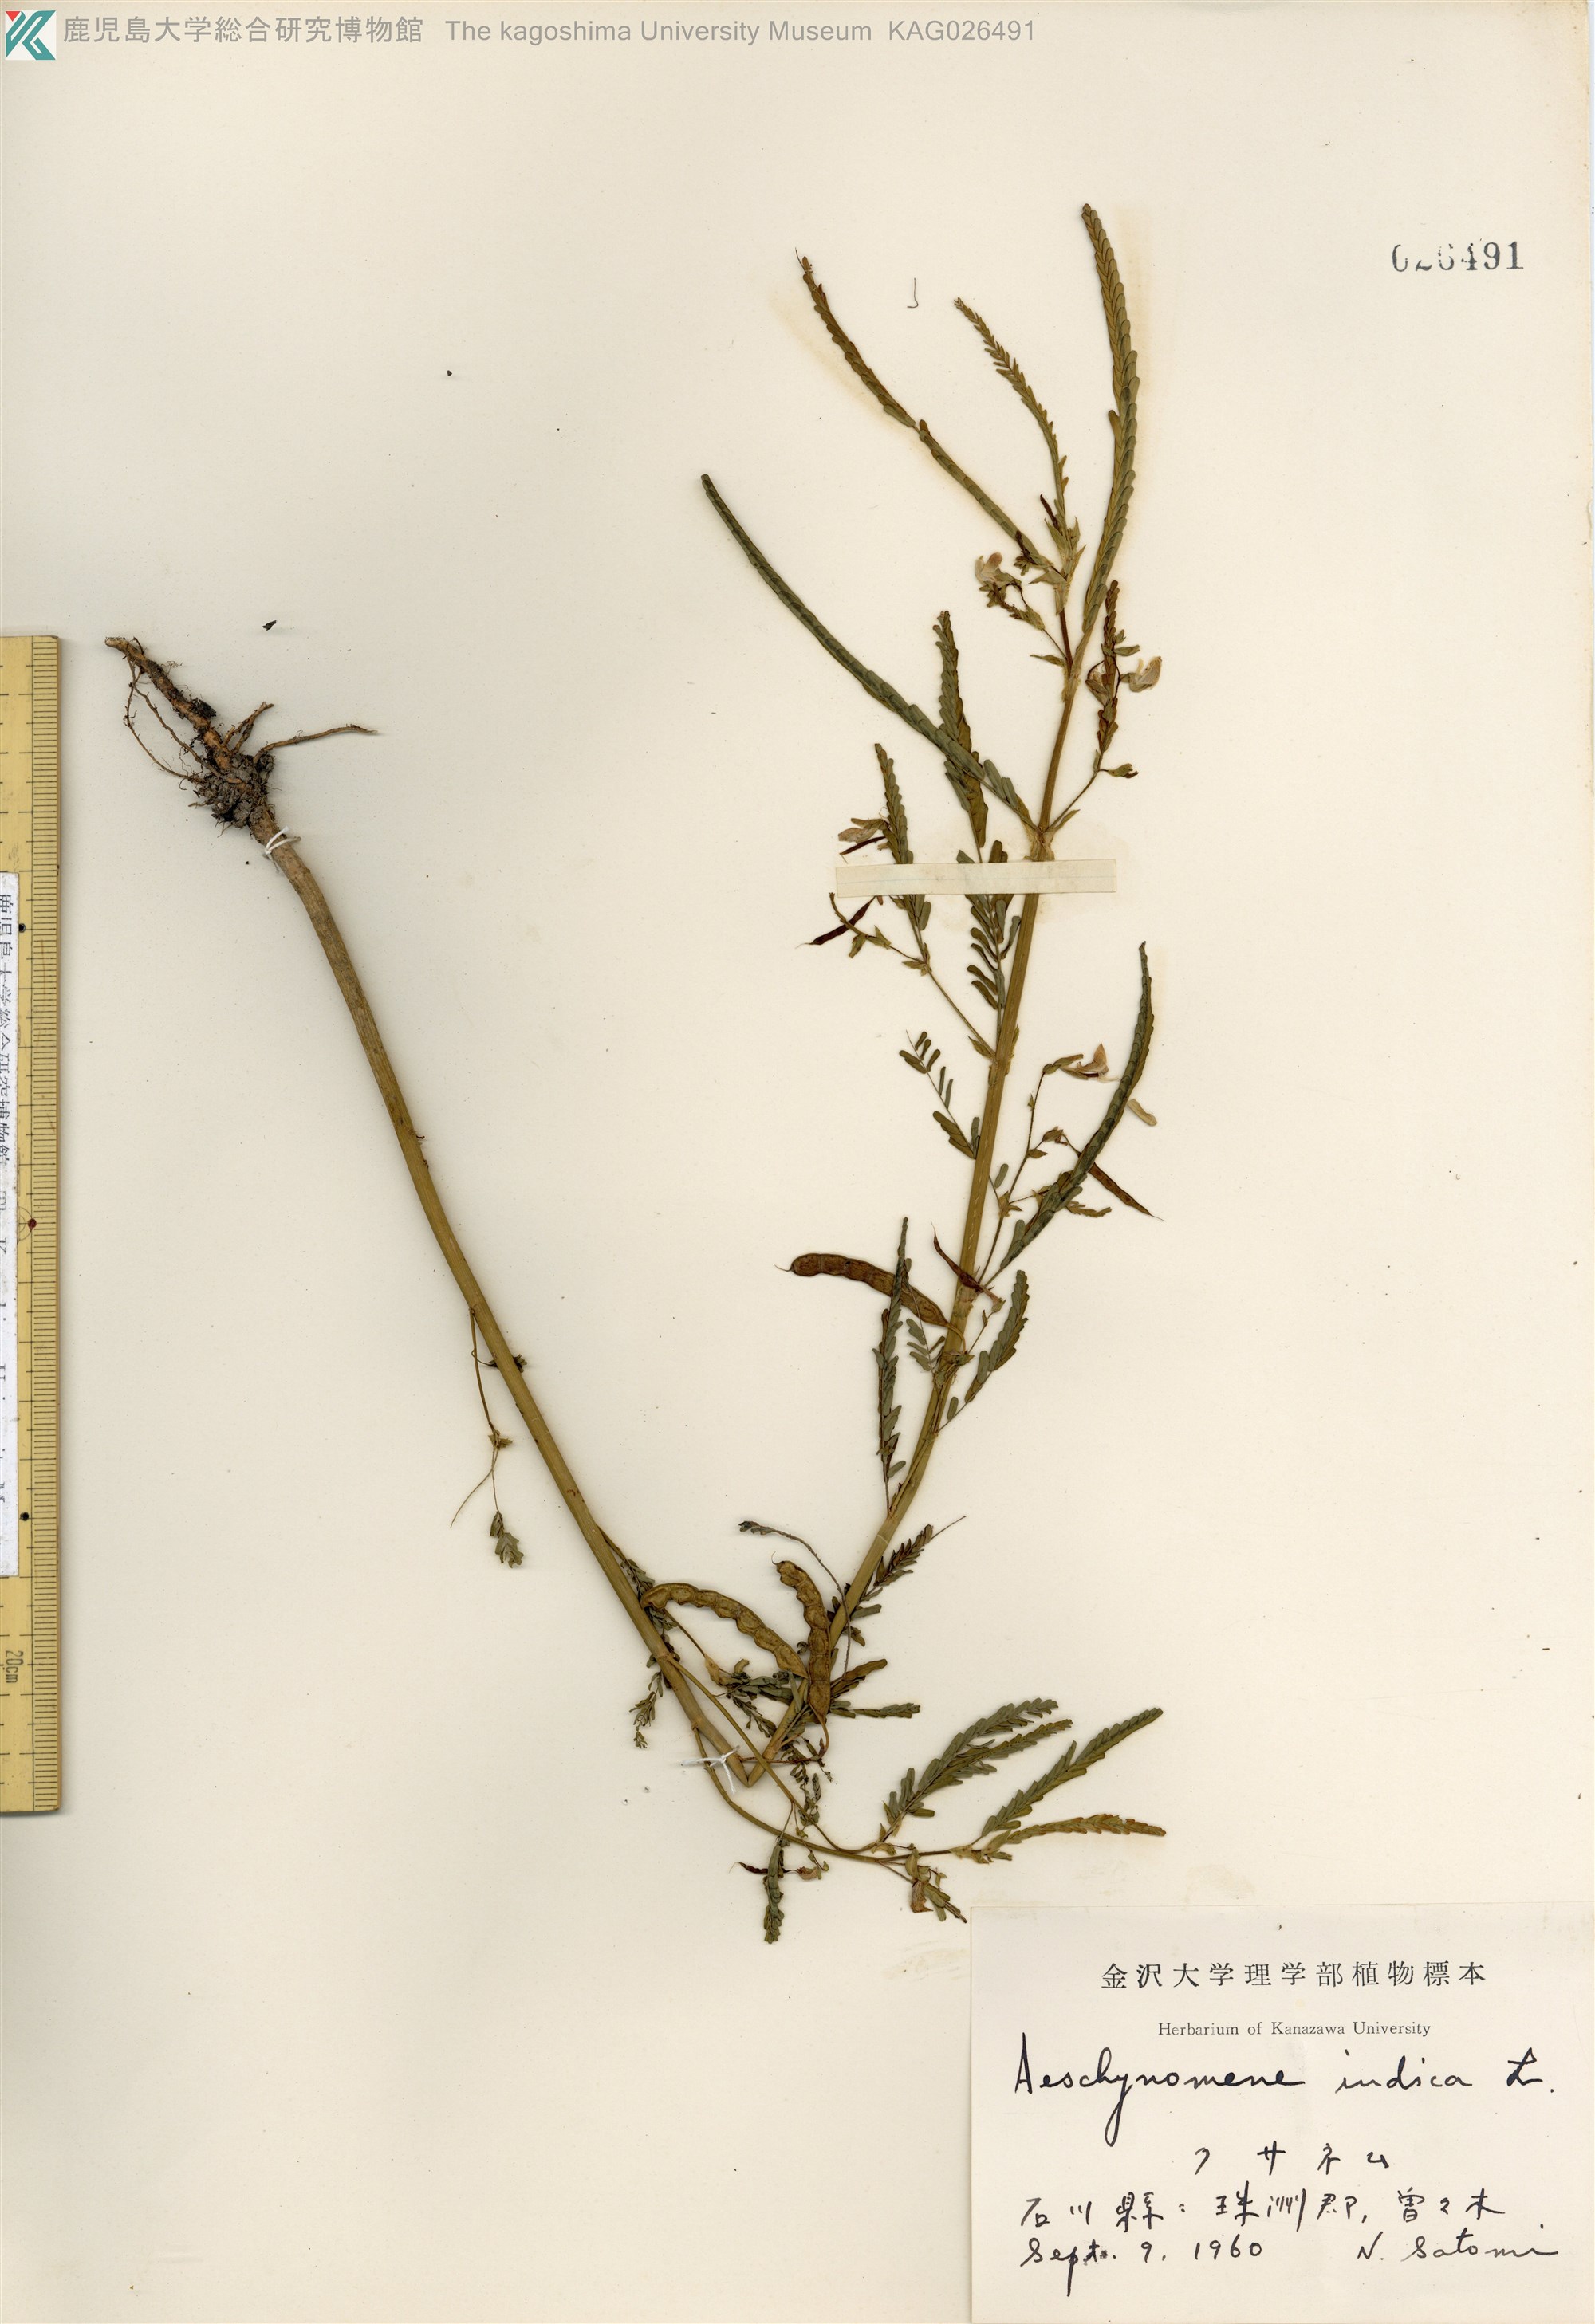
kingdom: Plantae
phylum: Tracheophyta
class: Magnoliopsida
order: Fabales
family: Fabaceae
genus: Aeschynomene
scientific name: Aeschynomene indica
